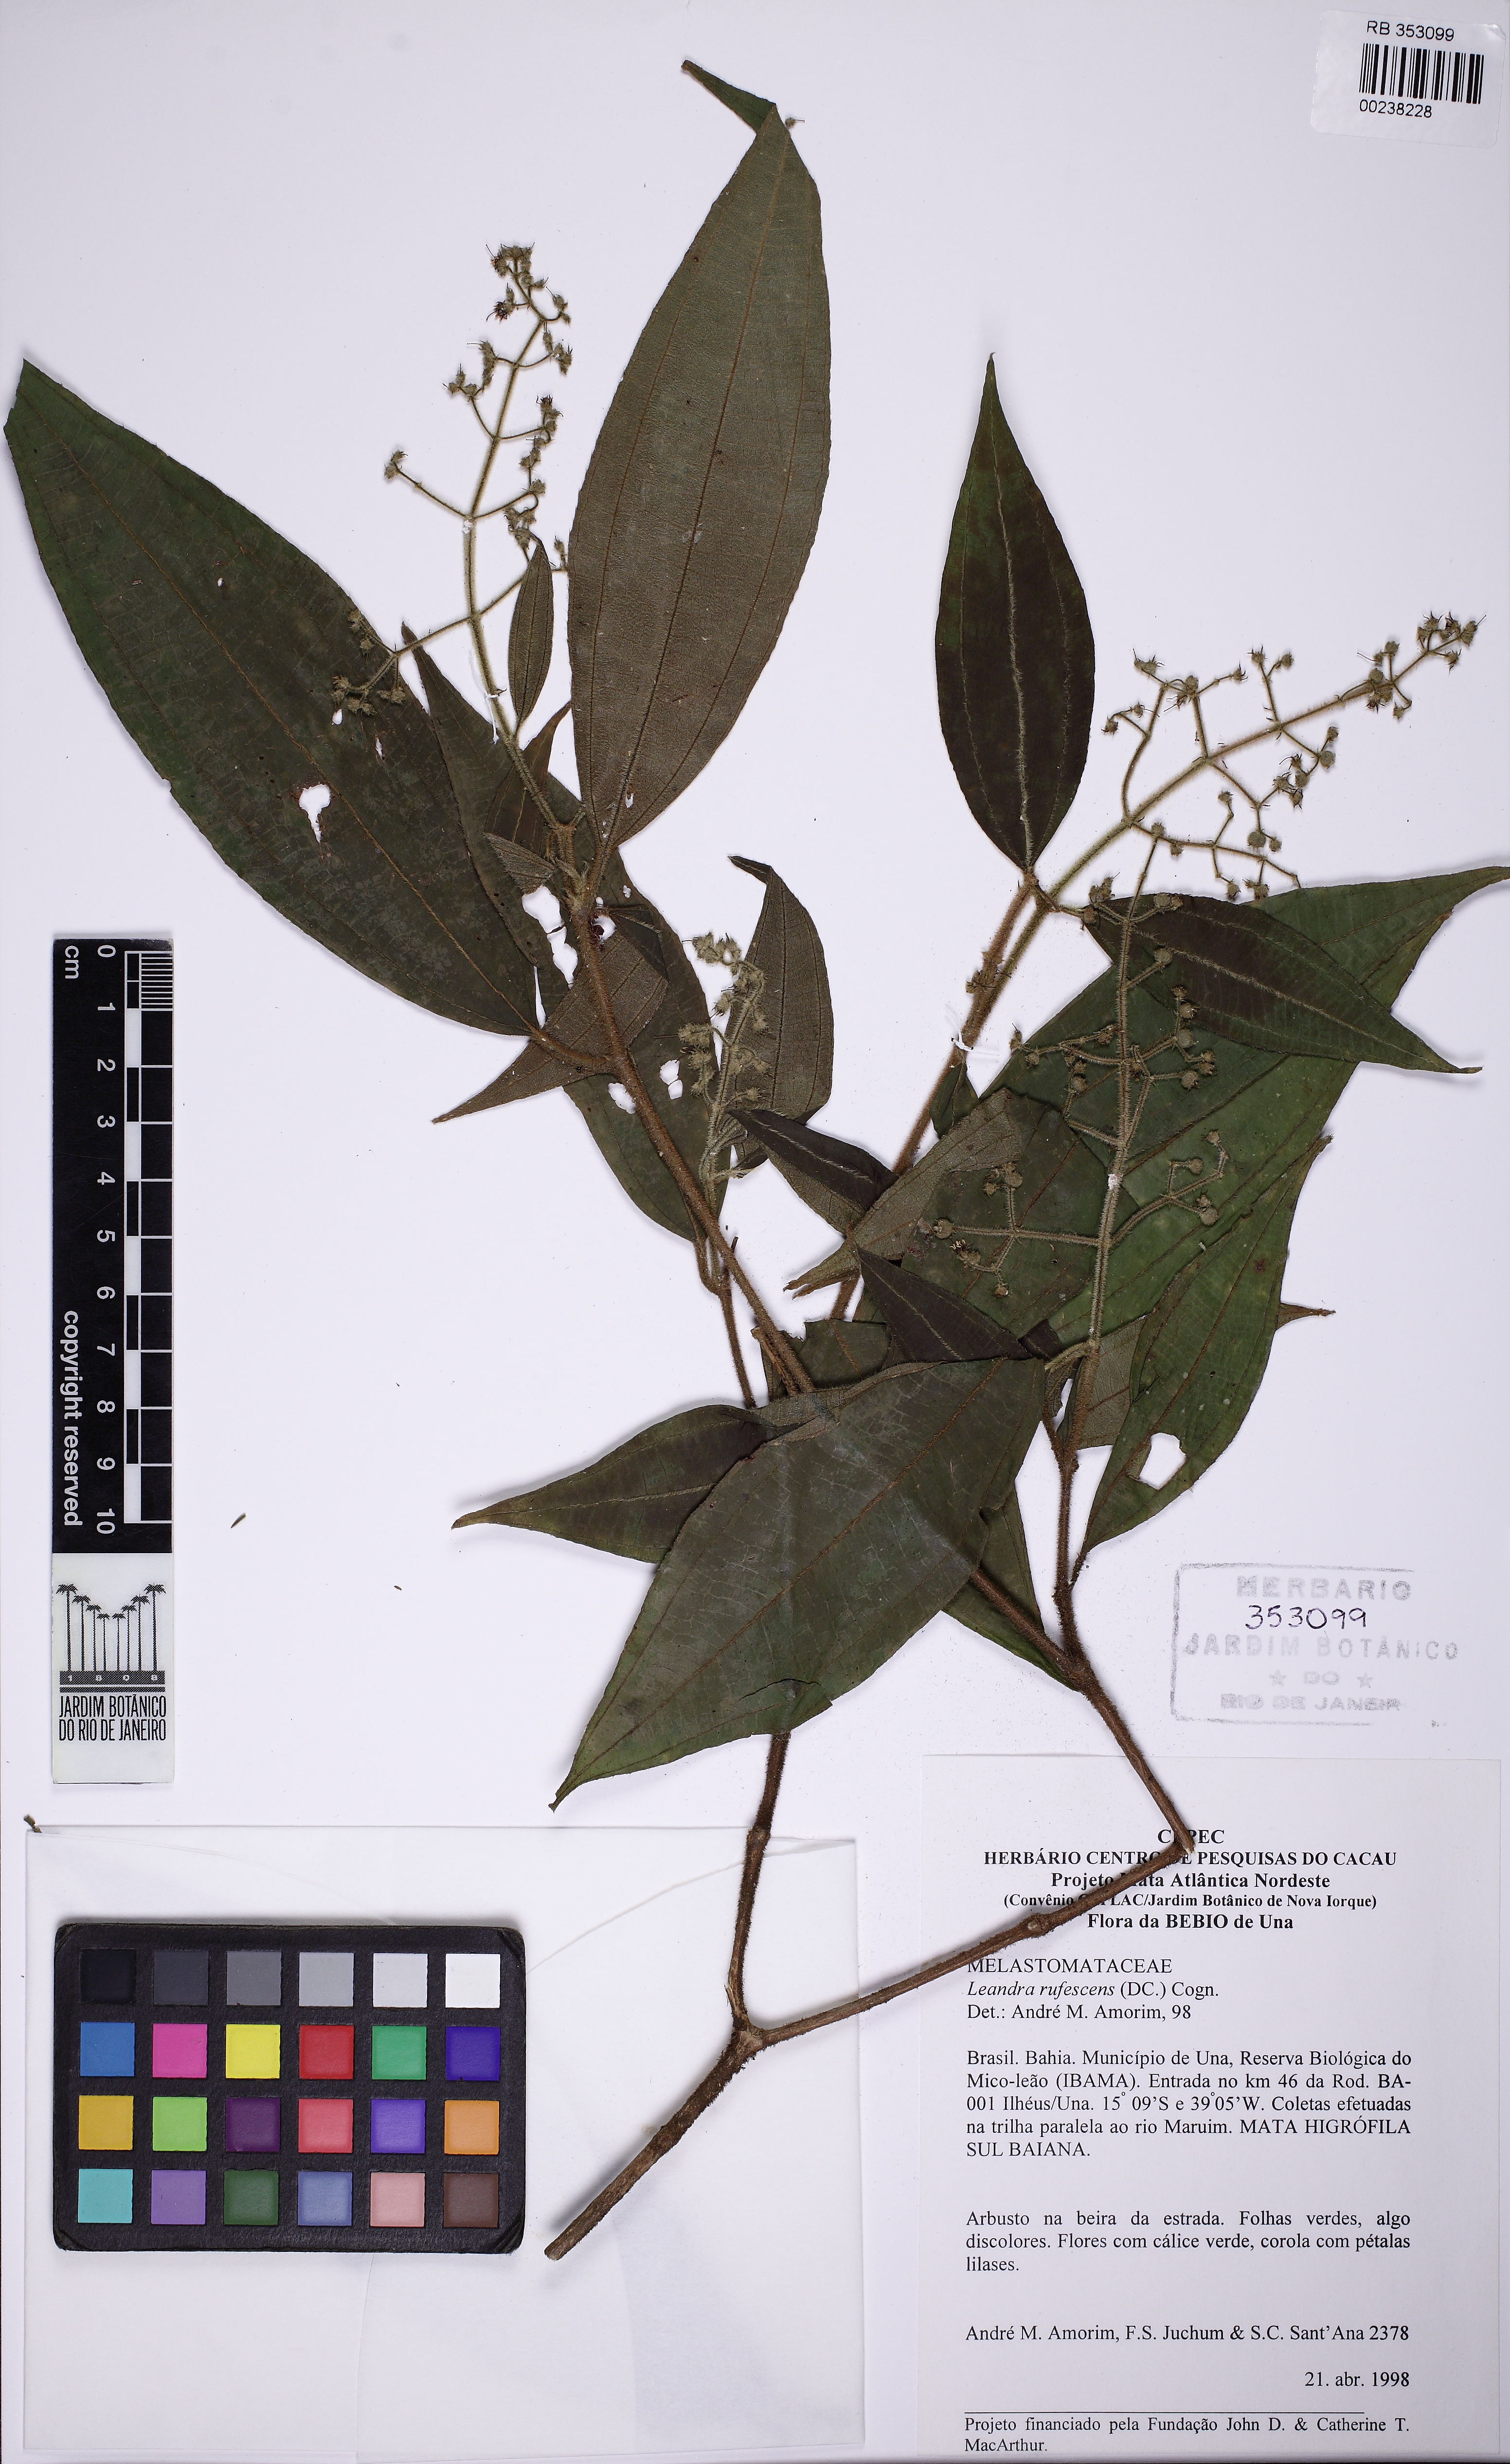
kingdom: Plantae
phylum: Tracheophyta
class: Magnoliopsida
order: Myrtales
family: Melastomataceae
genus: Miconia
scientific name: Miconia asperiuscula
